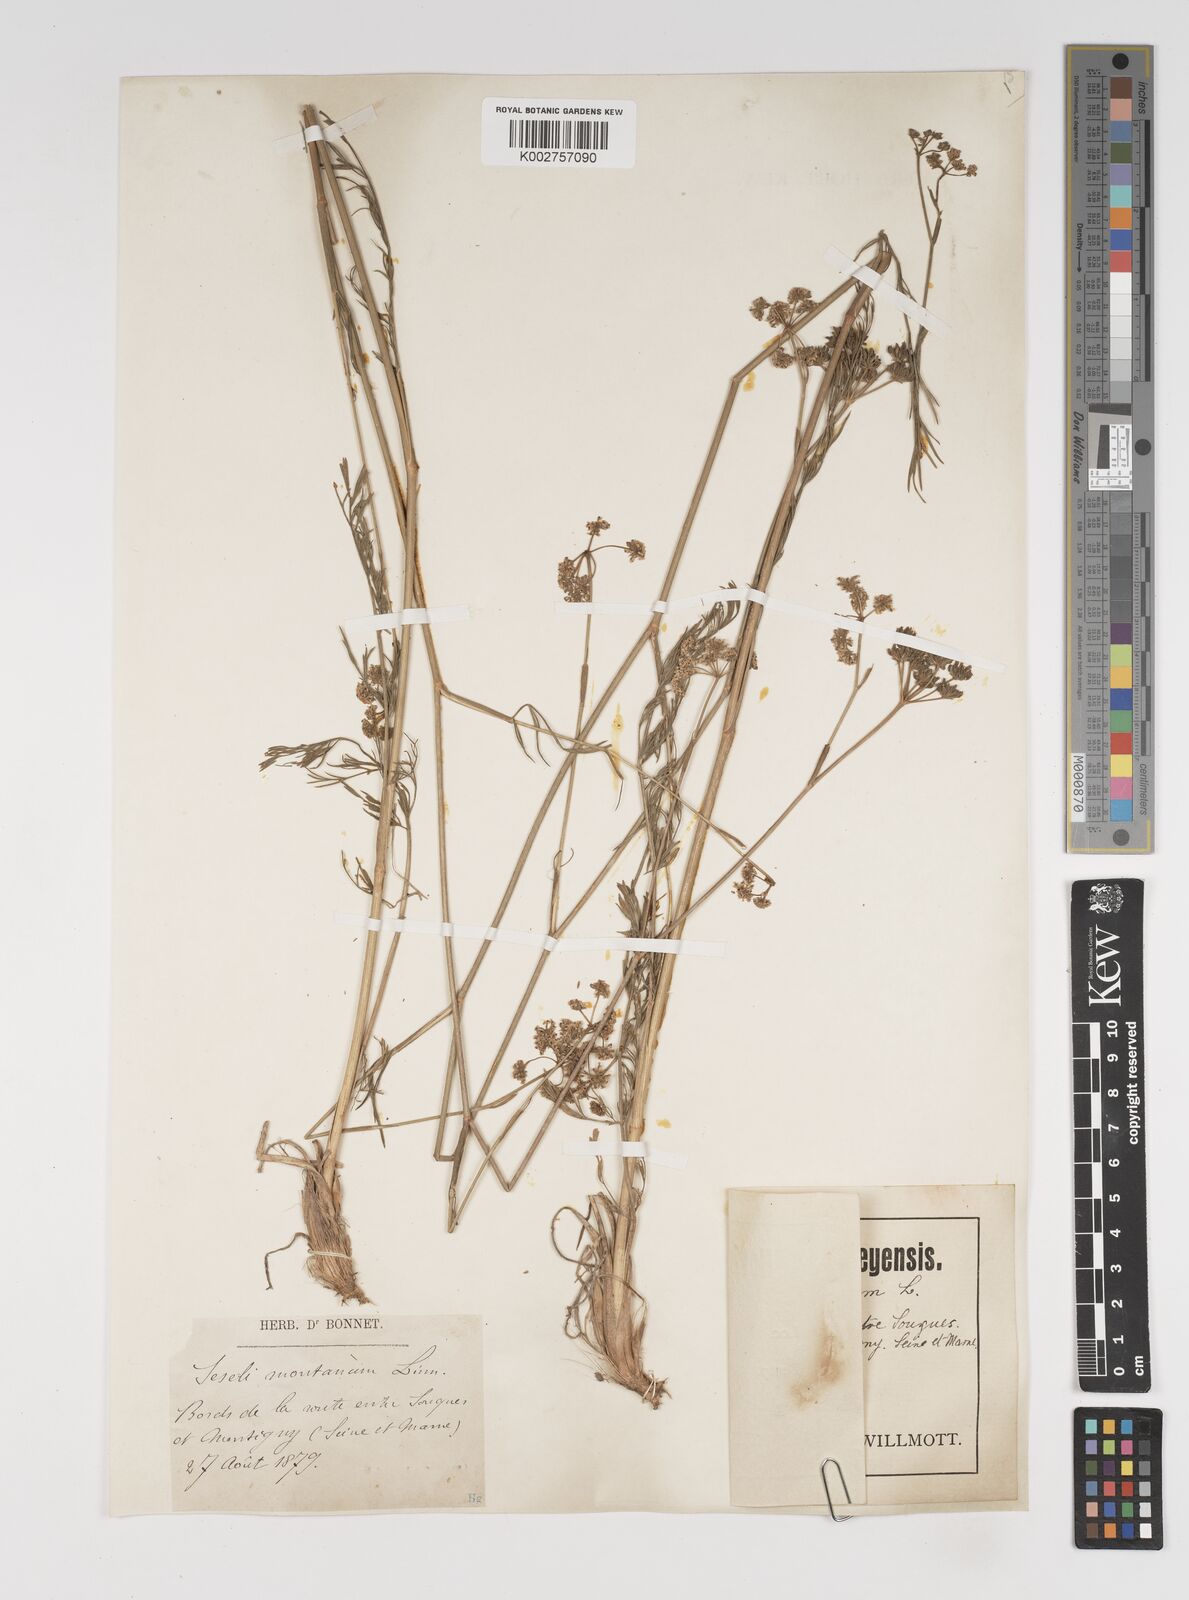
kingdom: Plantae
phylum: Tracheophyta
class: Magnoliopsida
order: Apiales
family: Apiaceae
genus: Seseli
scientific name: Seseli montanum
